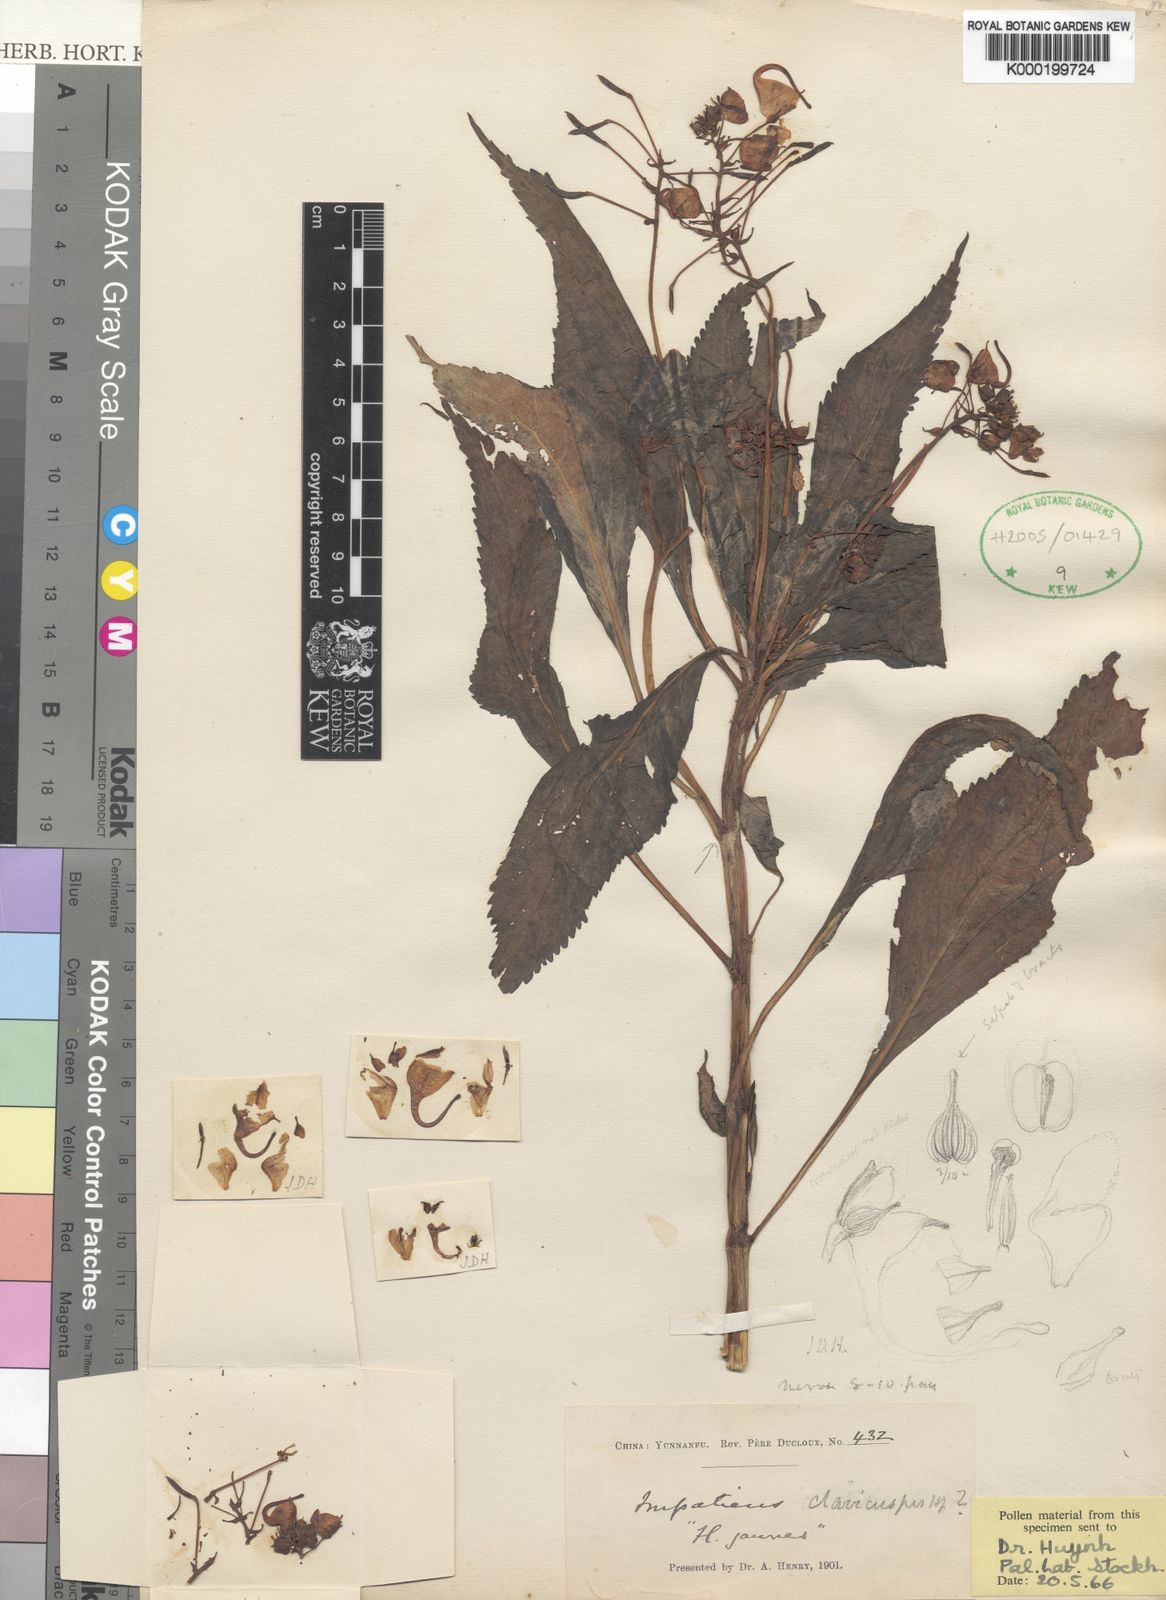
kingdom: Plantae
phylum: Tracheophyta
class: Magnoliopsida
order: Ericales
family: Balsaminaceae
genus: Impatiens
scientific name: Impatiens clavicuspis
